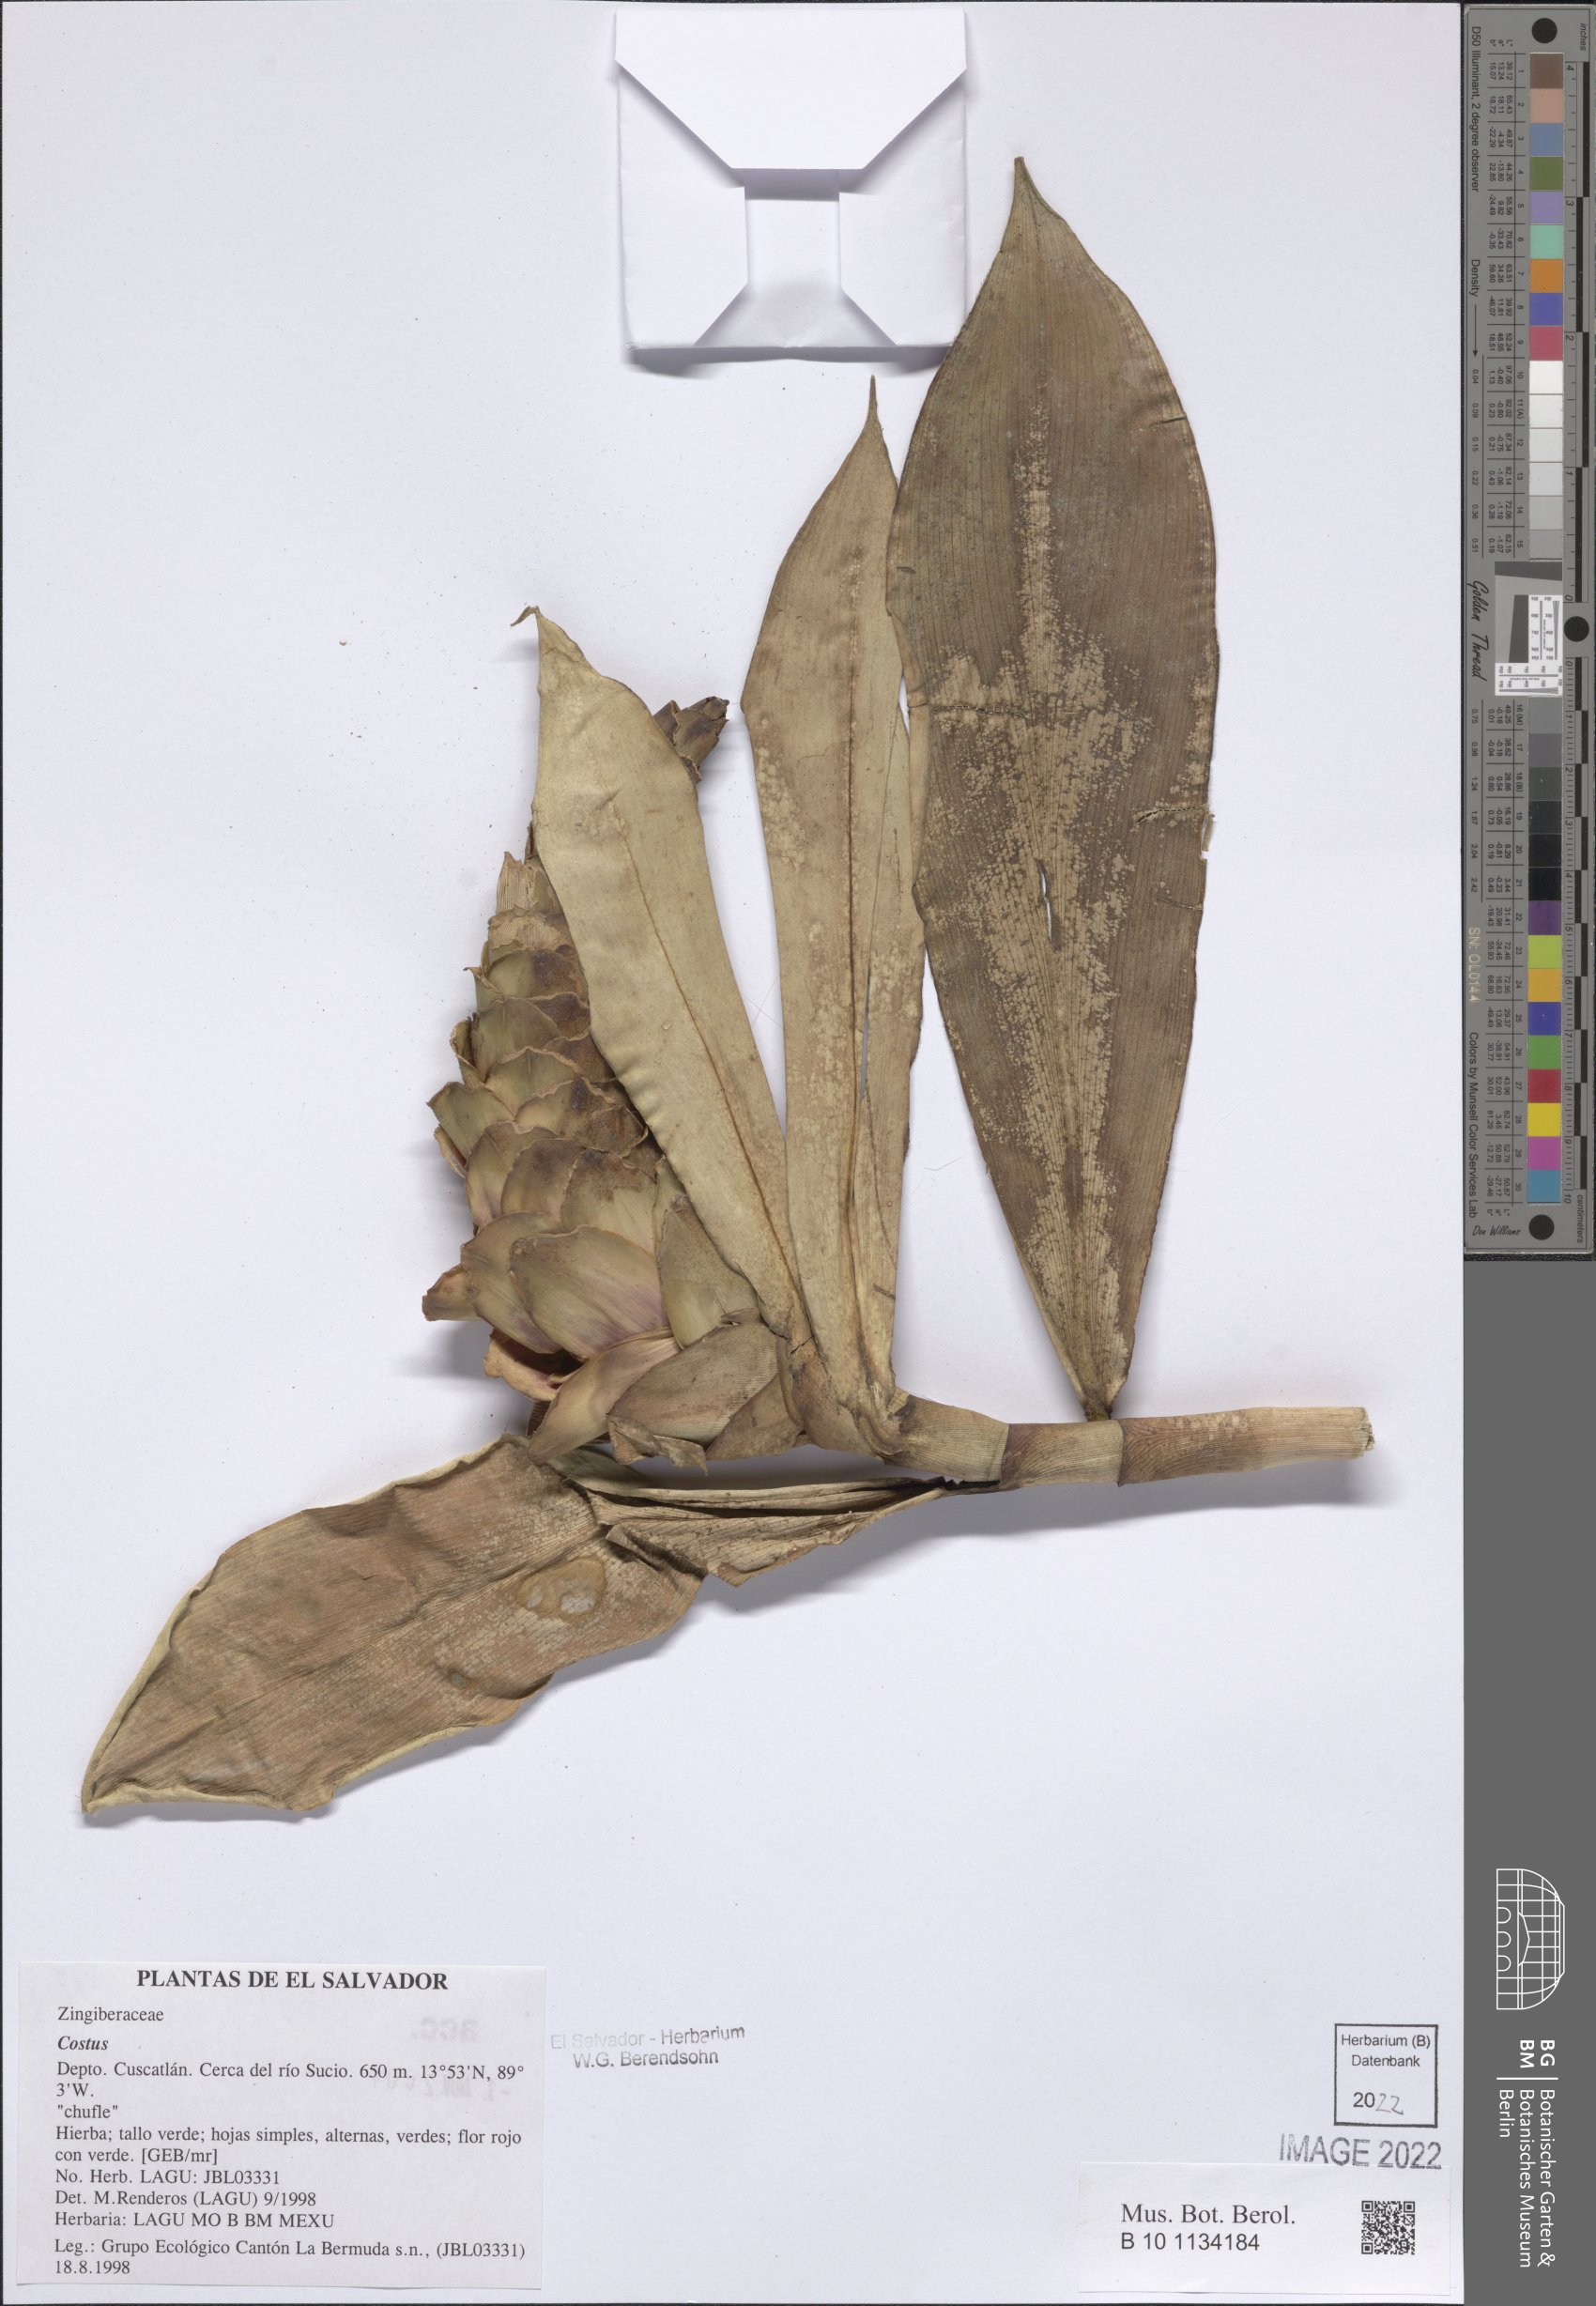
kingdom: Plantae
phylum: Tracheophyta
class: Liliopsida
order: Zingiberales
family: Costaceae
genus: Costus
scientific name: Costus
